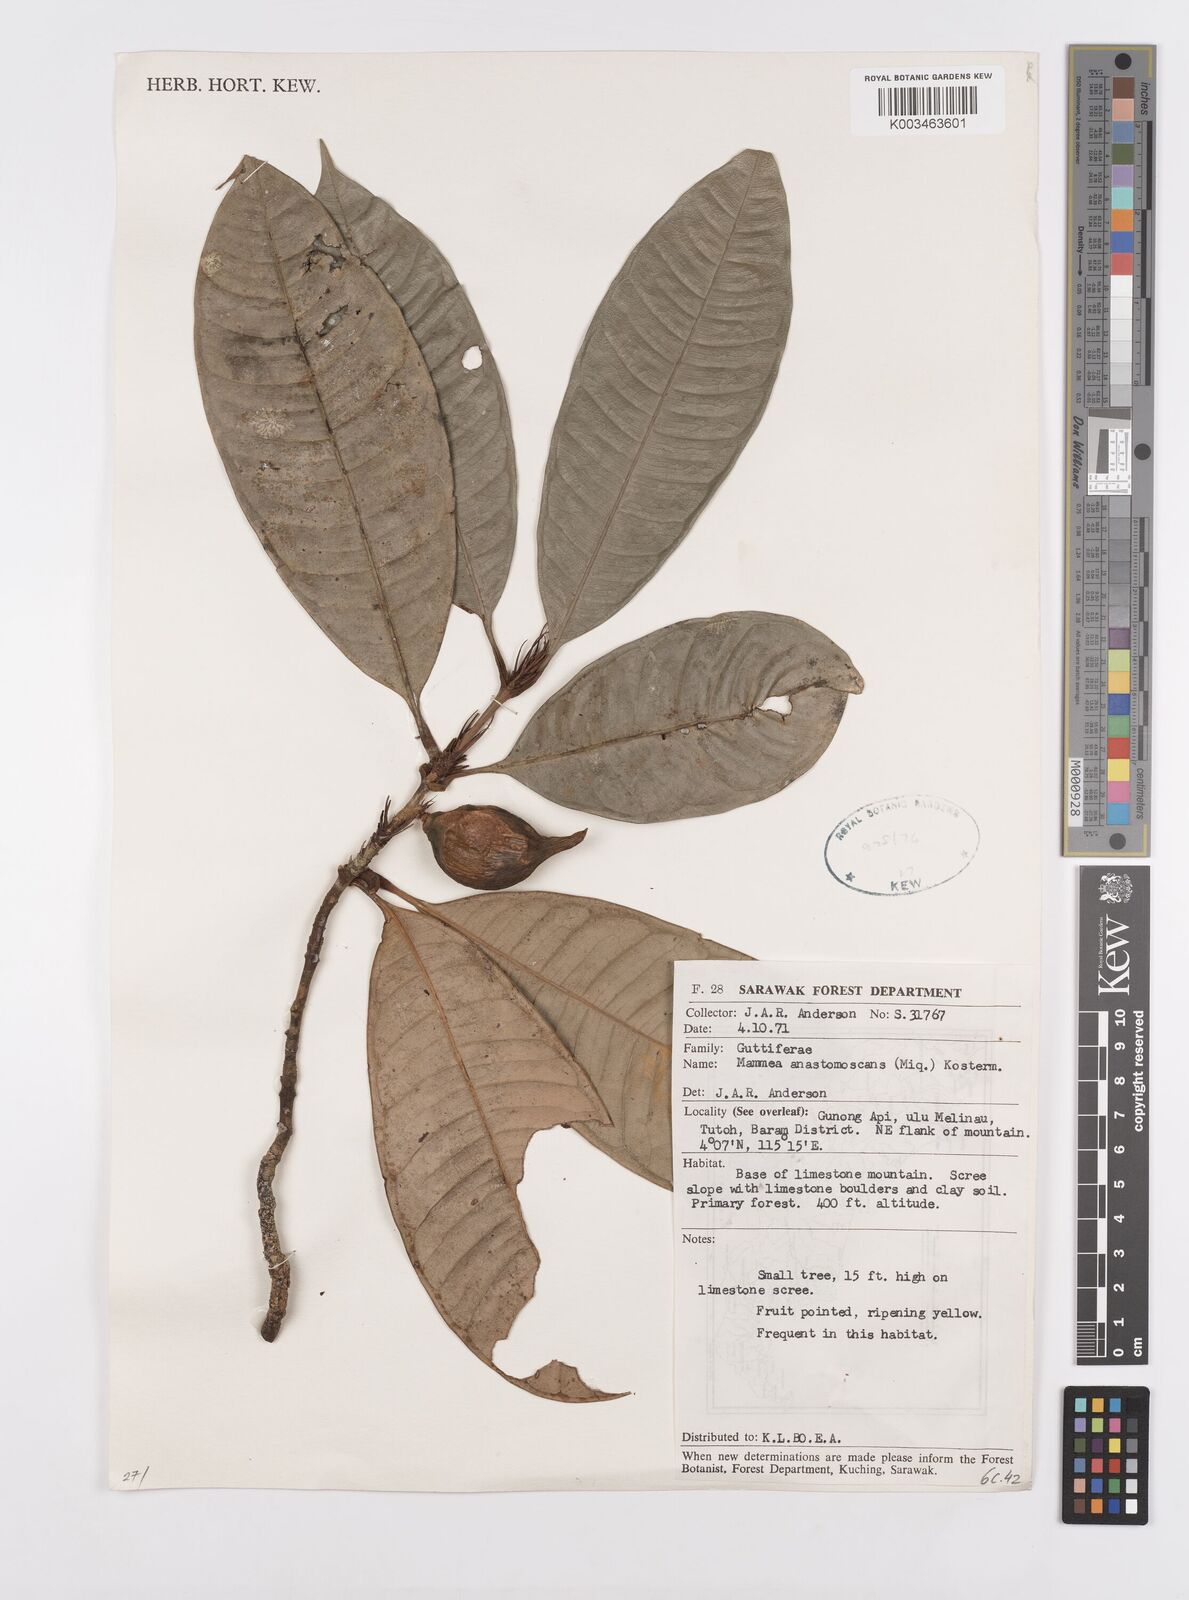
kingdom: Plantae
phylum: Tracheophyta
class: Magnoliopsida
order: Malpighiales
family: Calophyllaceae
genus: Mammea
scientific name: Mammea calciphila
